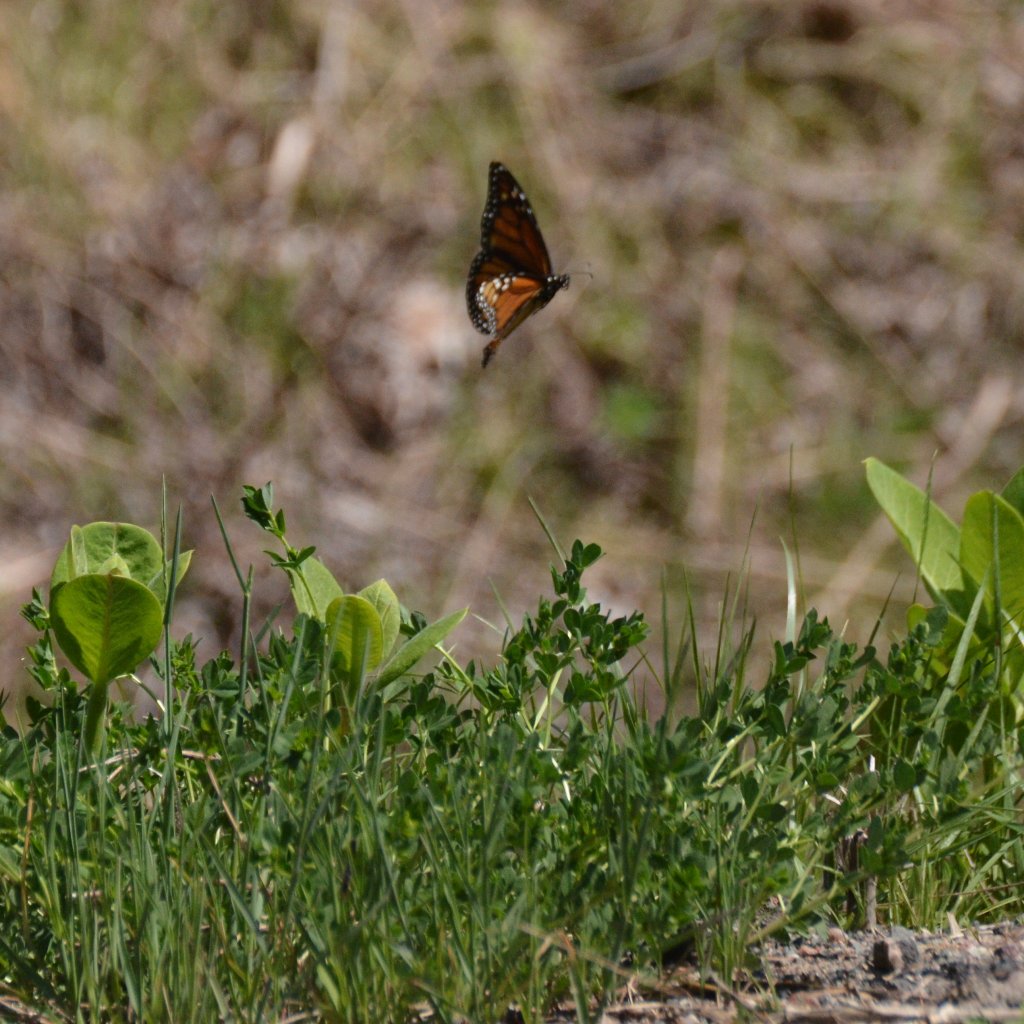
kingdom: Animalia
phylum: Arthropoda
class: Insecta
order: Lepidoptera
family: Nymphalidae
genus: Danaus
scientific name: Danaus plexippus
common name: Monarch
